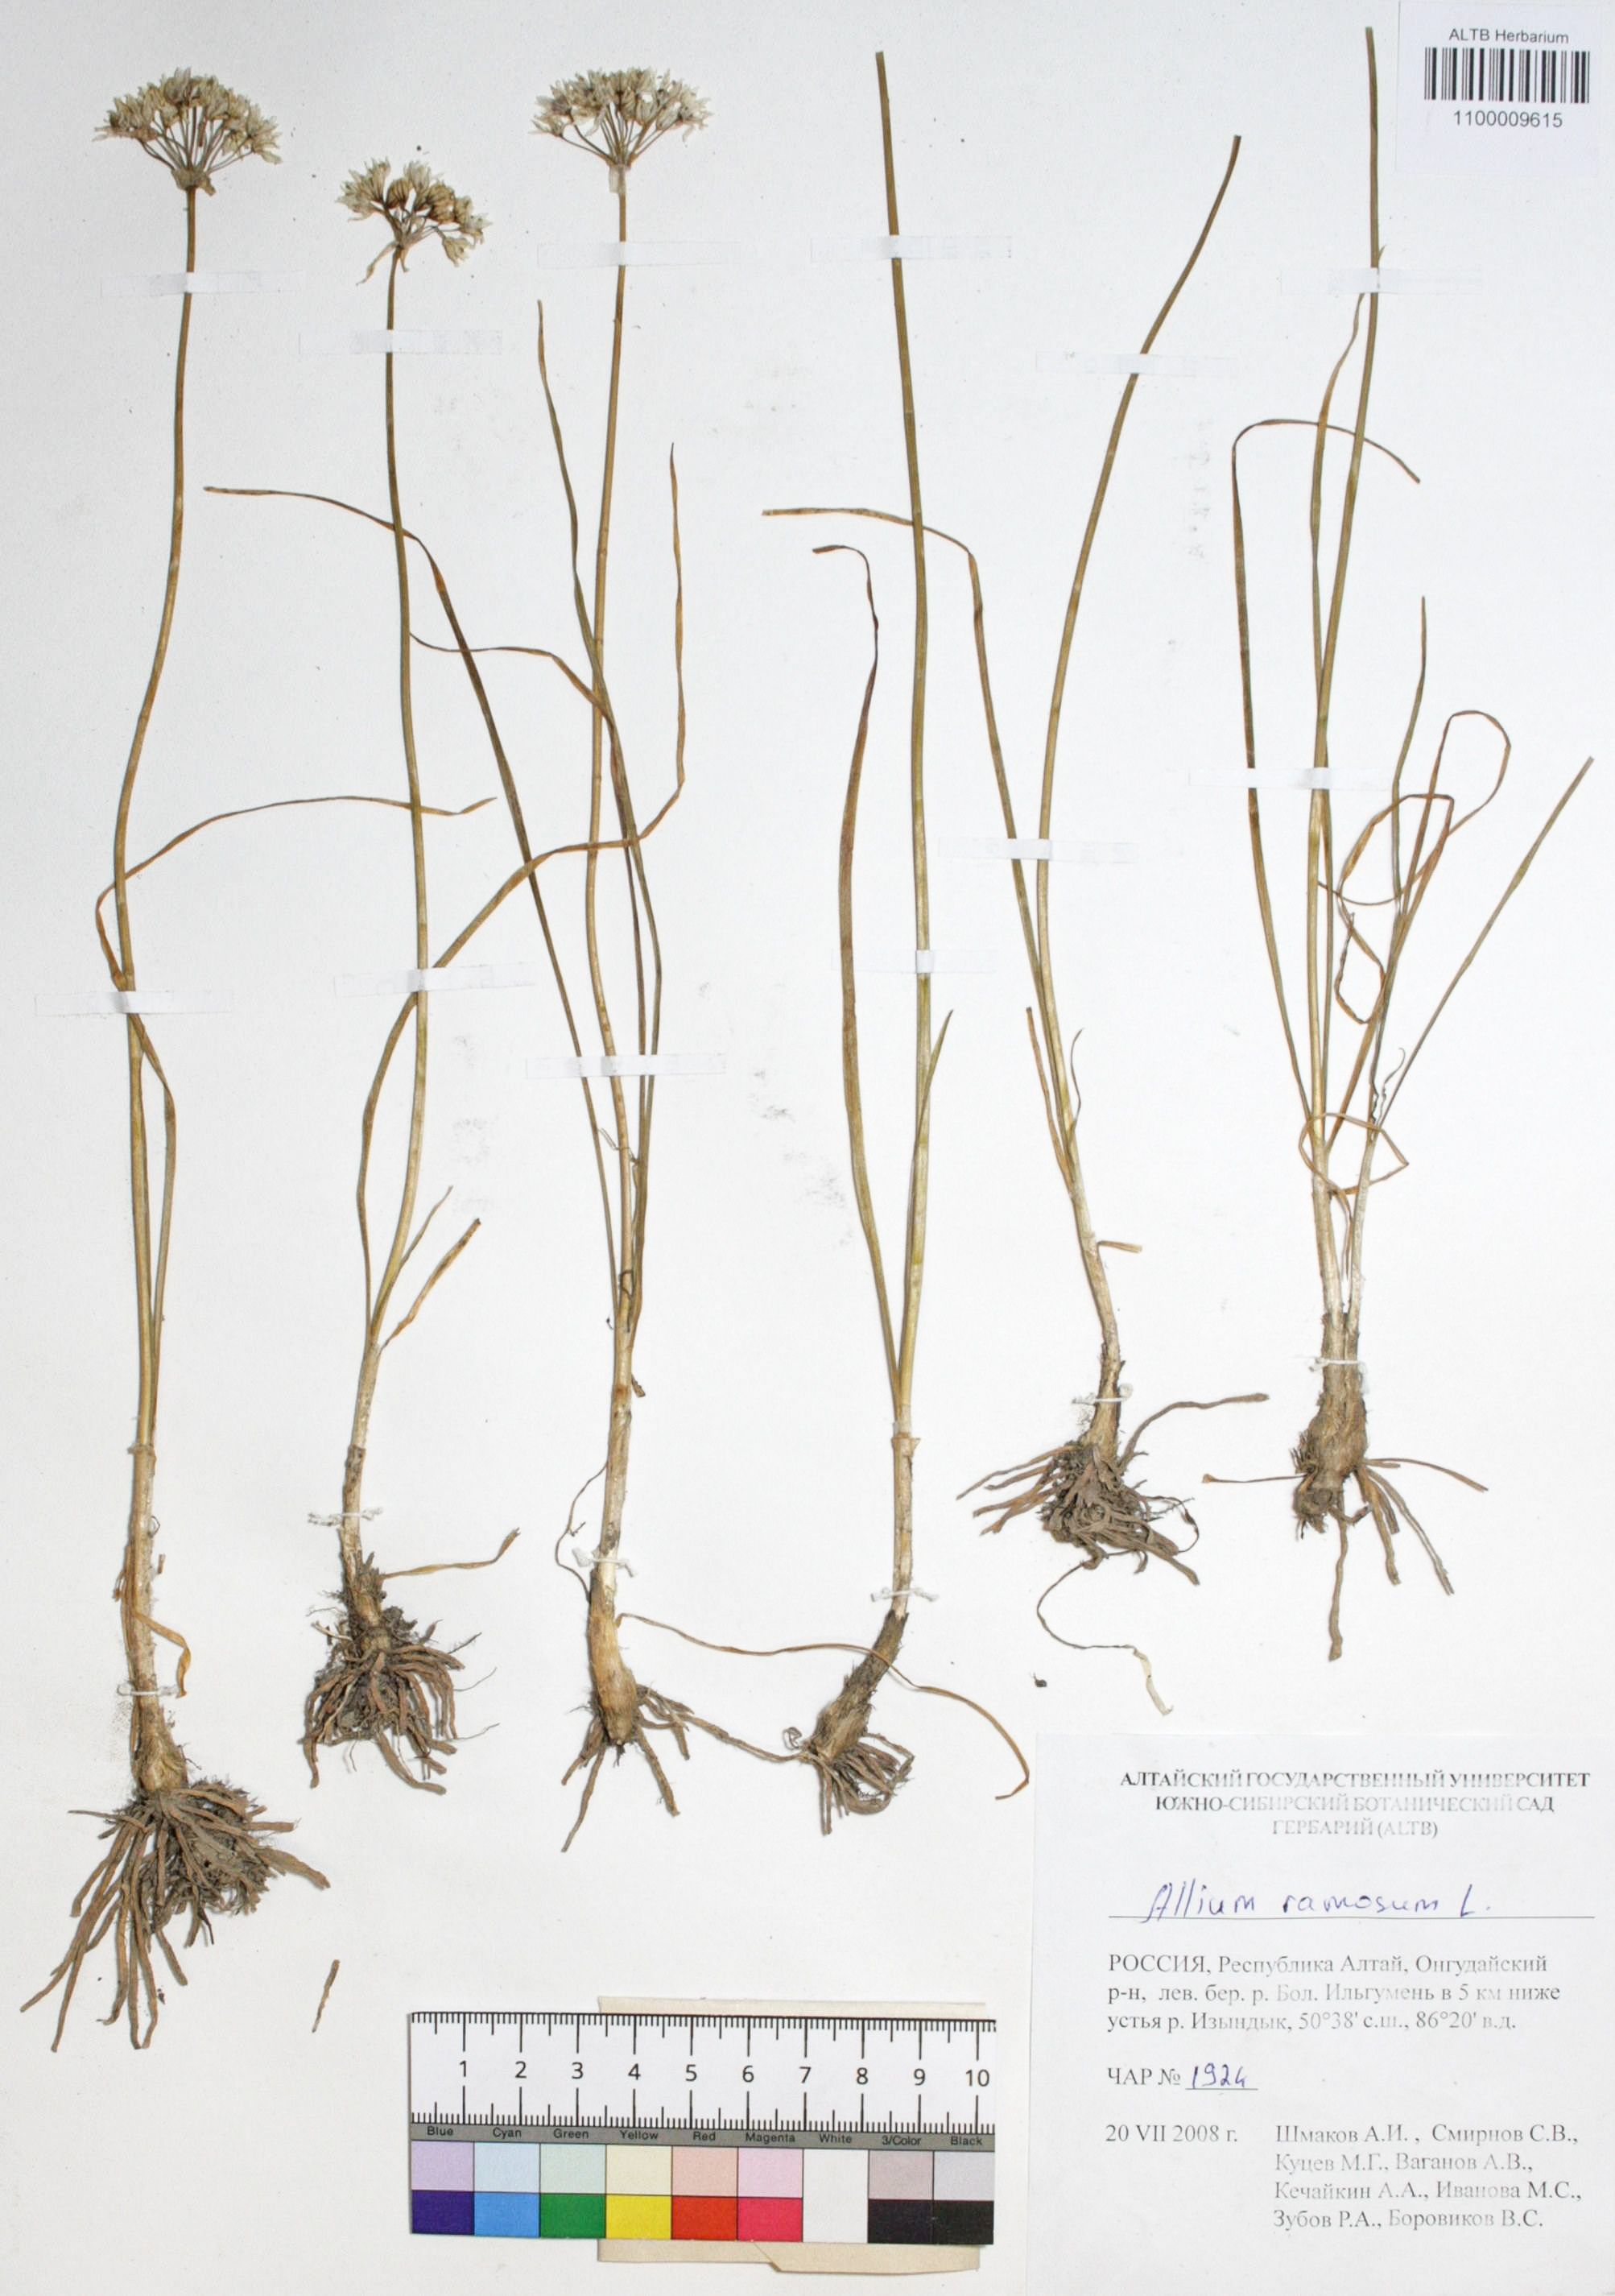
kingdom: Plantae
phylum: Tracheophyta
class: Liliopsida
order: Asparagales
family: Amaryllidaceae
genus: Allium
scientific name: Allium ramosum
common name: Fragrant garlic
